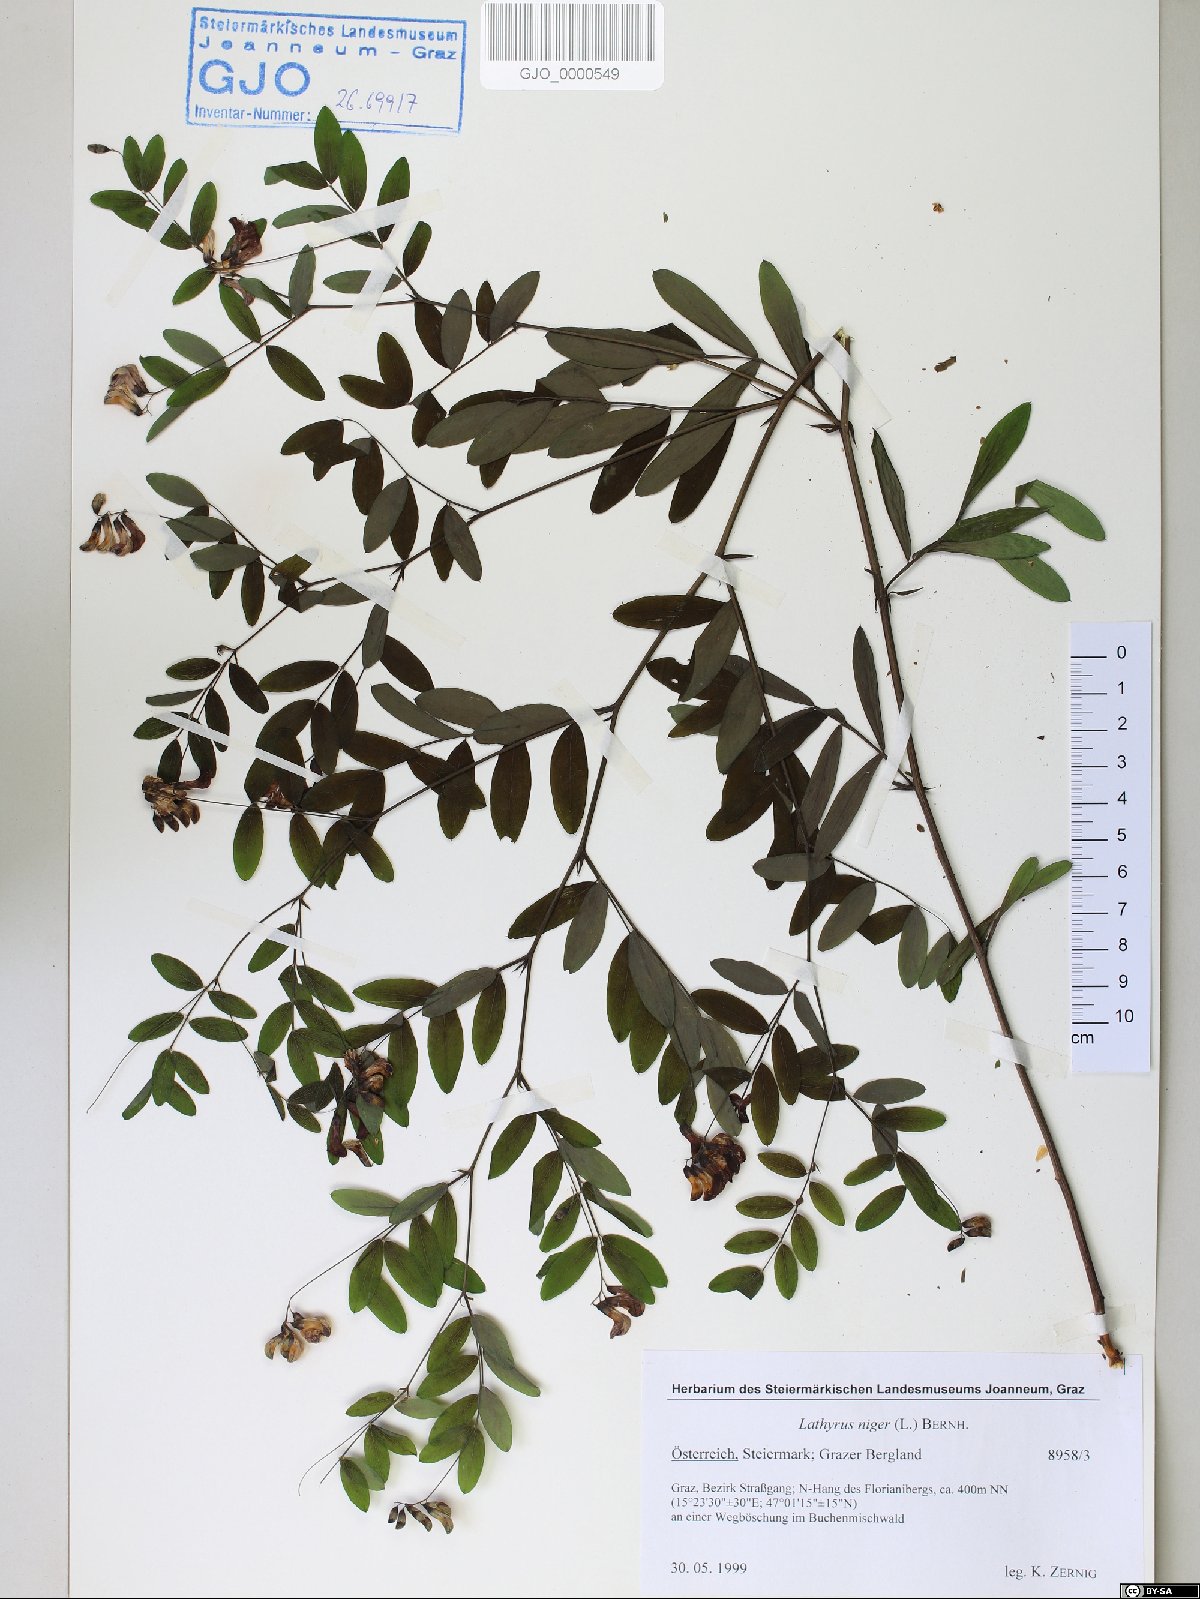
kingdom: Plantae
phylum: Tracheophyta
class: Magnoliopsida
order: Fabales
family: Fabaceae
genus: Lathyrus
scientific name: Lathyrus niger
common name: Black pea
